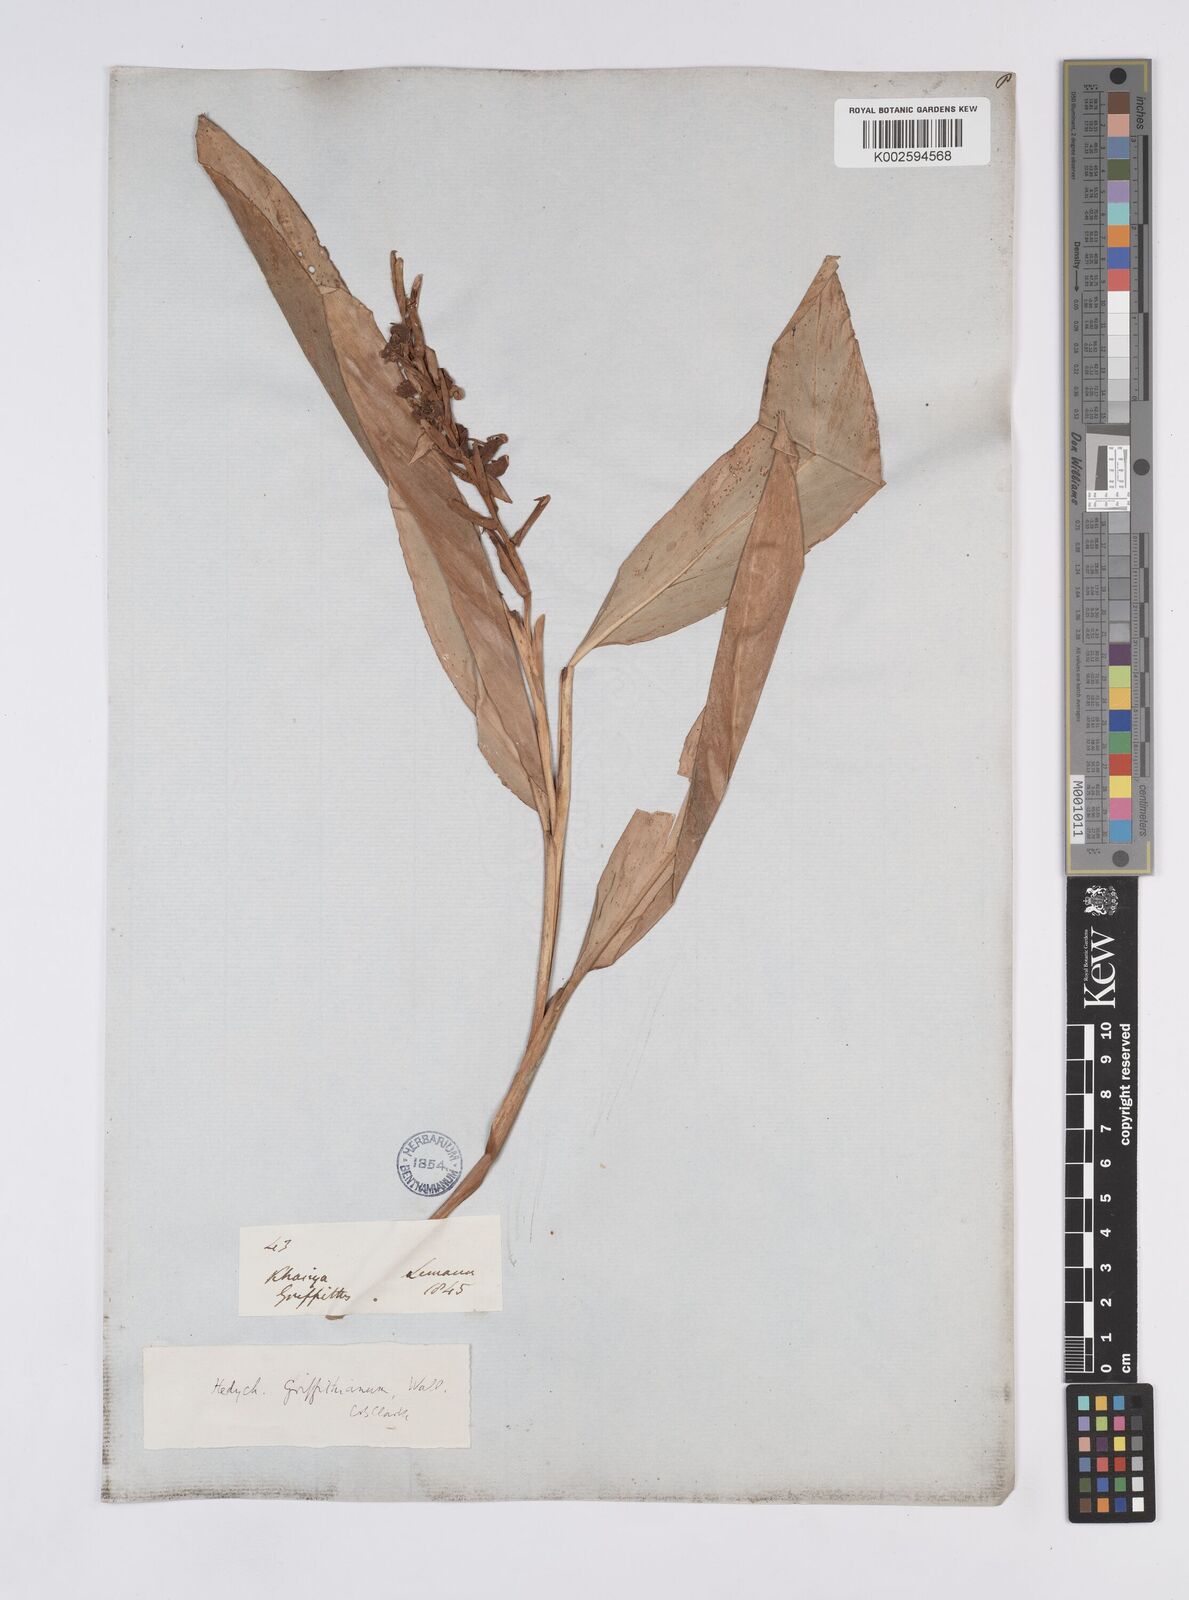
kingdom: Plantae
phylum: Tracheophyta
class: Liliopsida
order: Zingiberales
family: Zingiberaceae
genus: Hedychium
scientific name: Hedychium griffithianum
